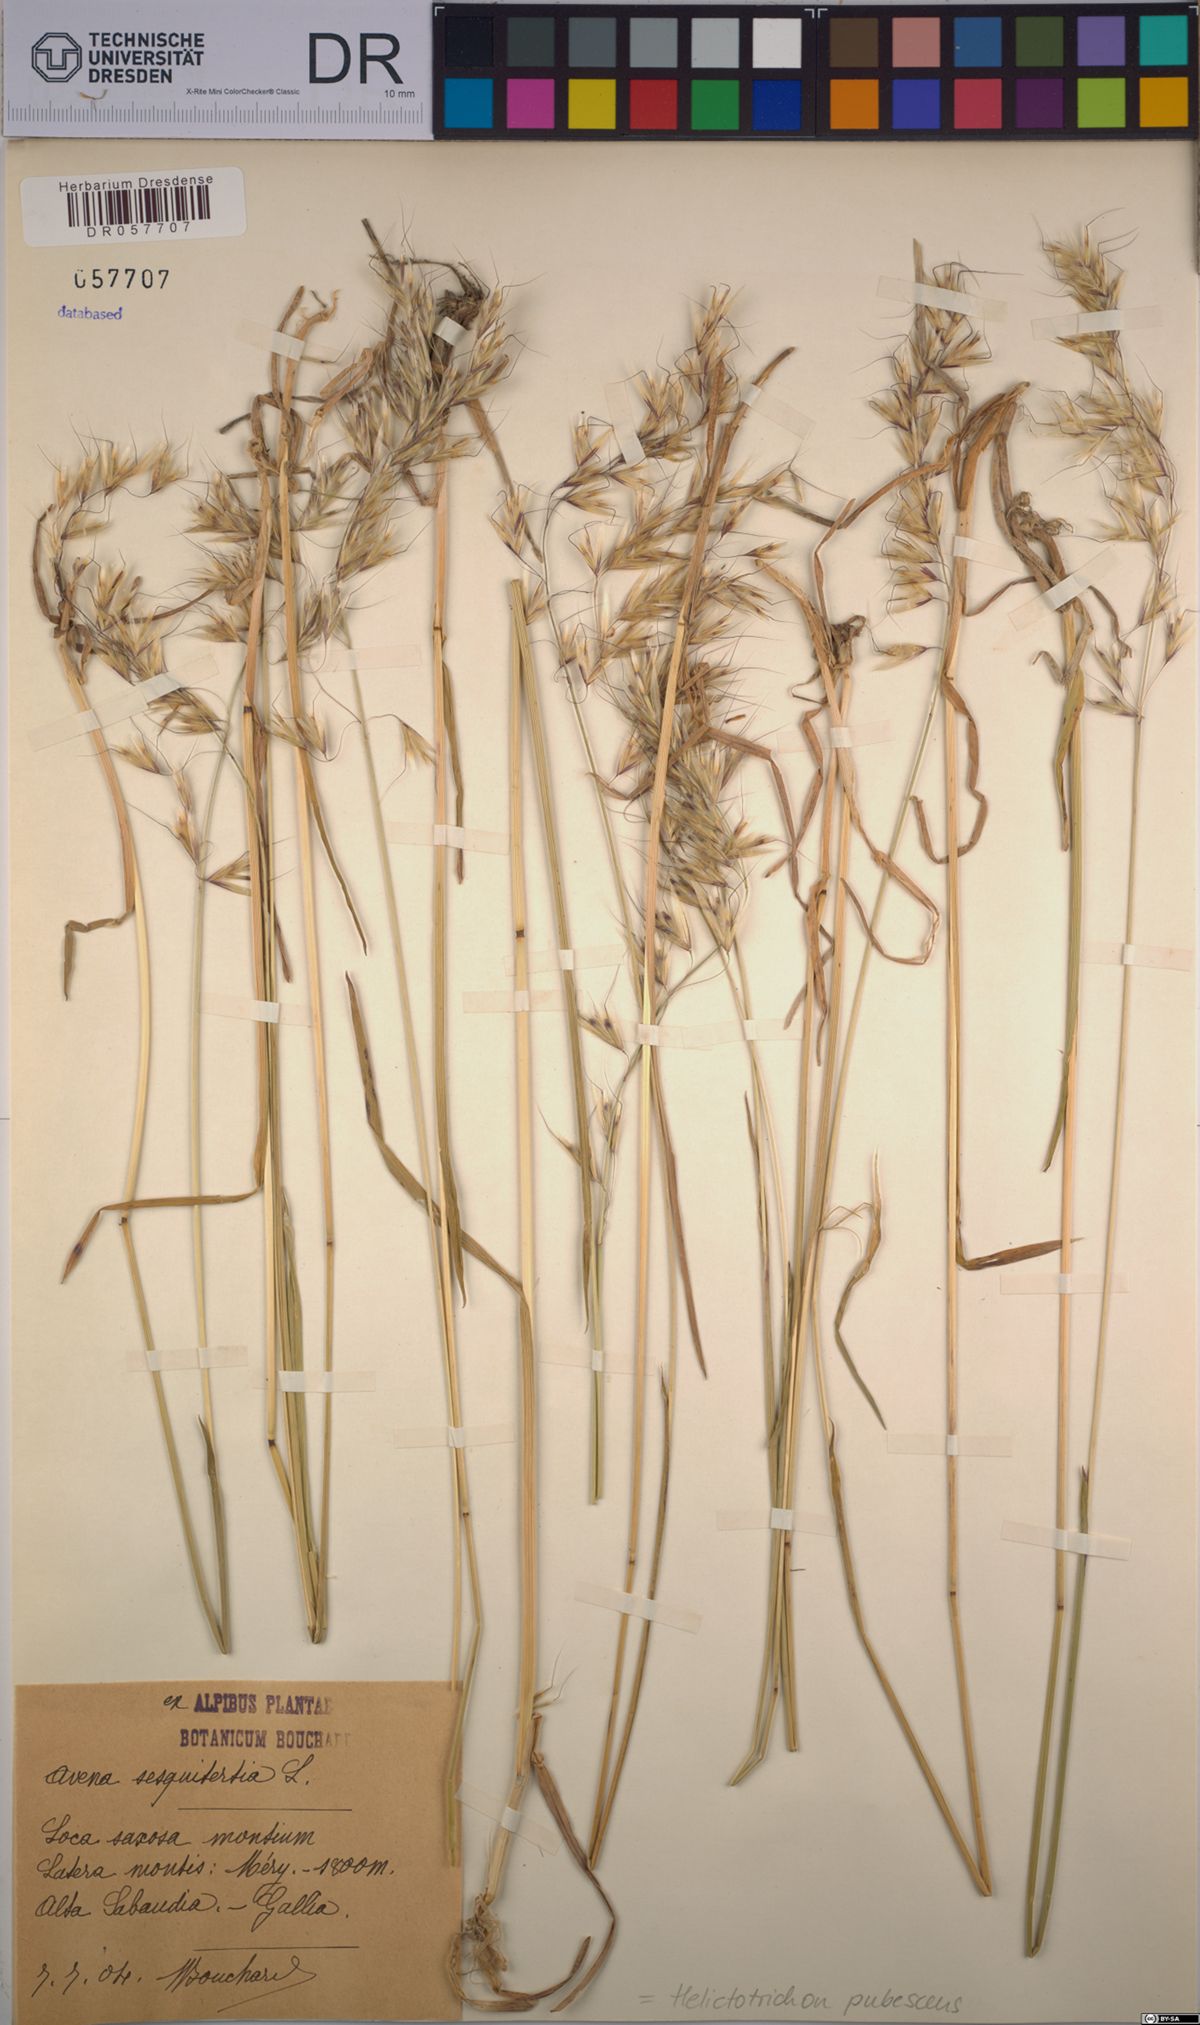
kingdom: Plantae
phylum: Tracheophyta
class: Liliopsida
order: Poales
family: Poaceae
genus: Avenula
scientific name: Avenula pubescens
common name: Downy alpine oatgrass
